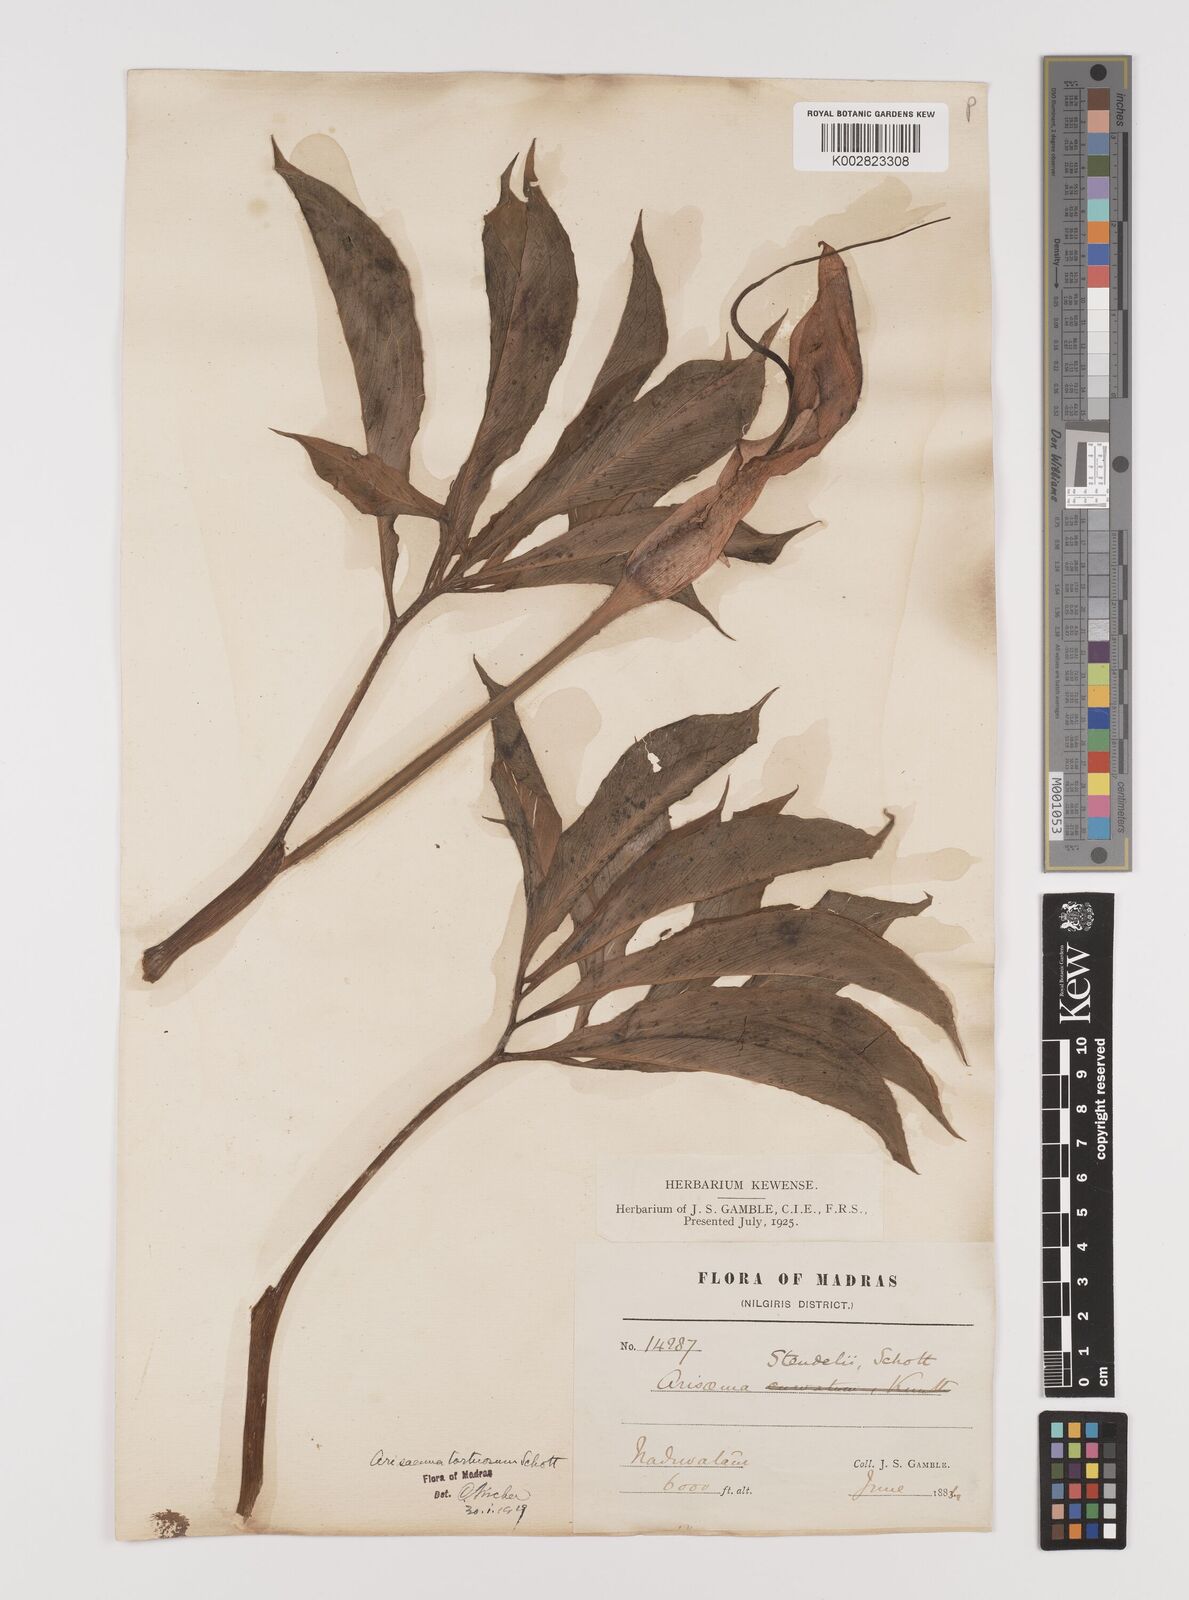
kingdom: Plantae
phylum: Tracheophyta
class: Liliopsida
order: Alismatales
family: Araceae
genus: Arisaema
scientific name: Arisaema tortuosum
